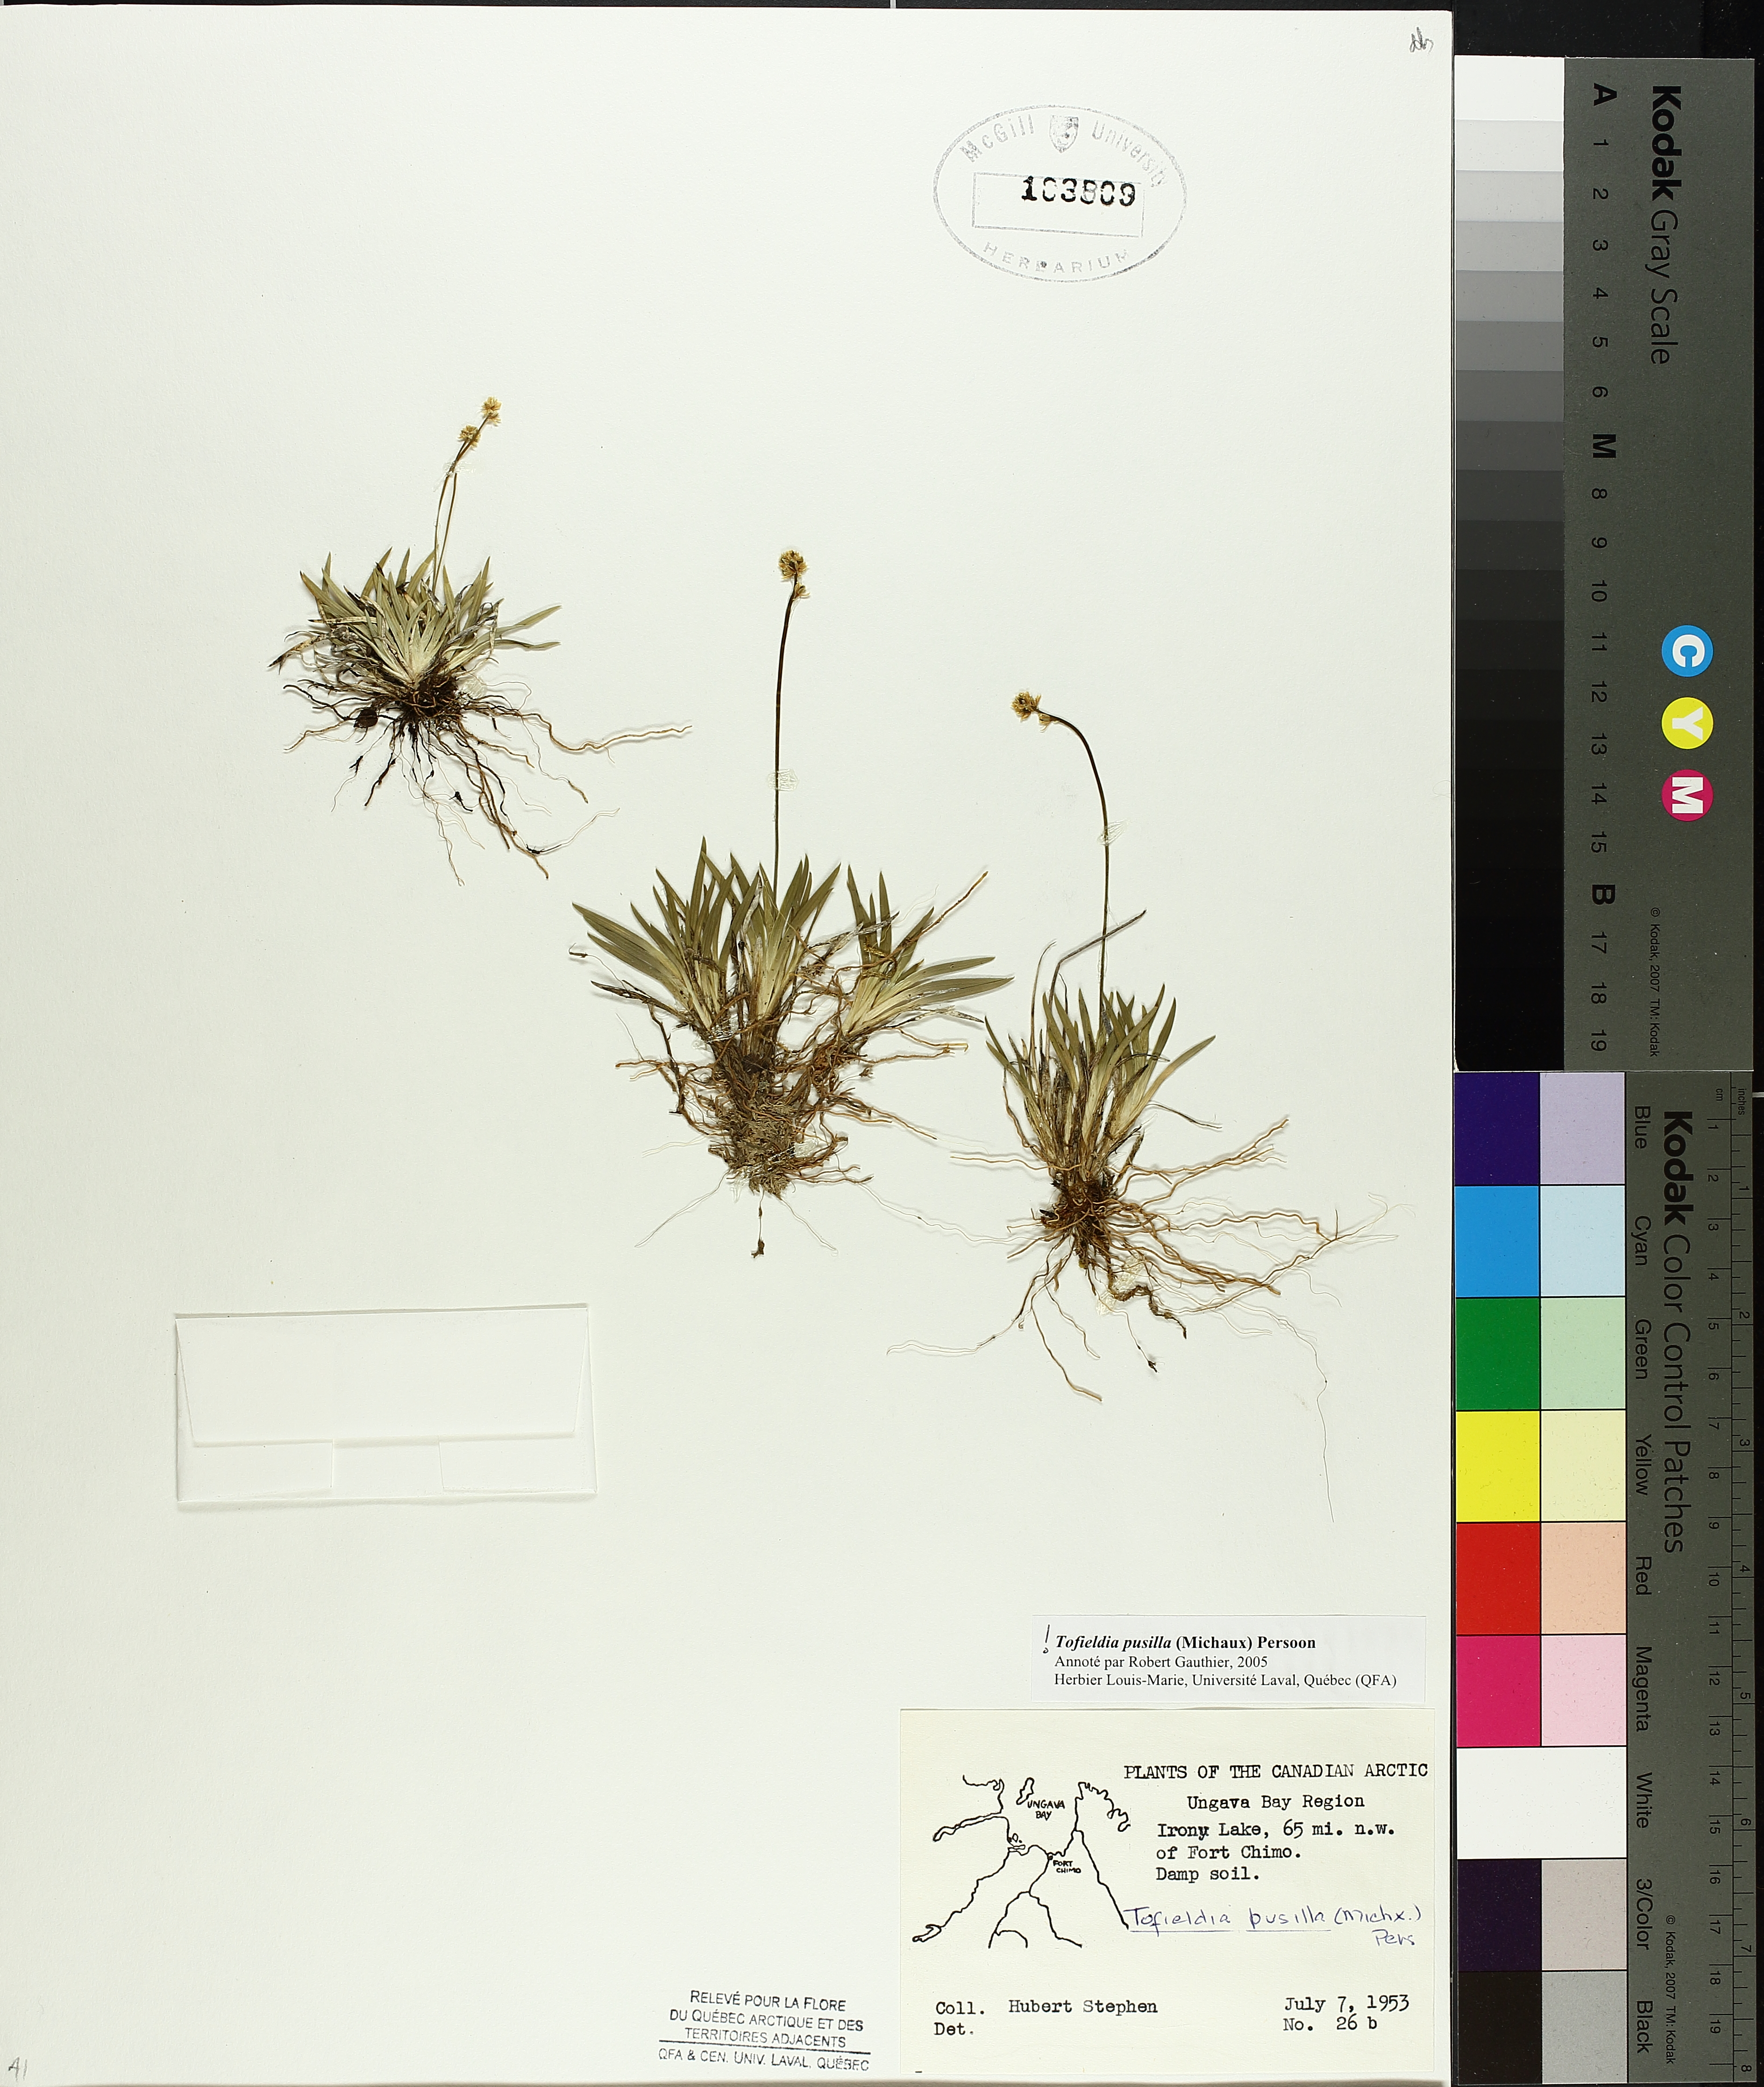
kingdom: Plantae
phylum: Tracheophyta
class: Liliopsida
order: Alismatales
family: Tofieldiaceae
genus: Tofieldia
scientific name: Tofieldia pusilla
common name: Scottish false asphodel
